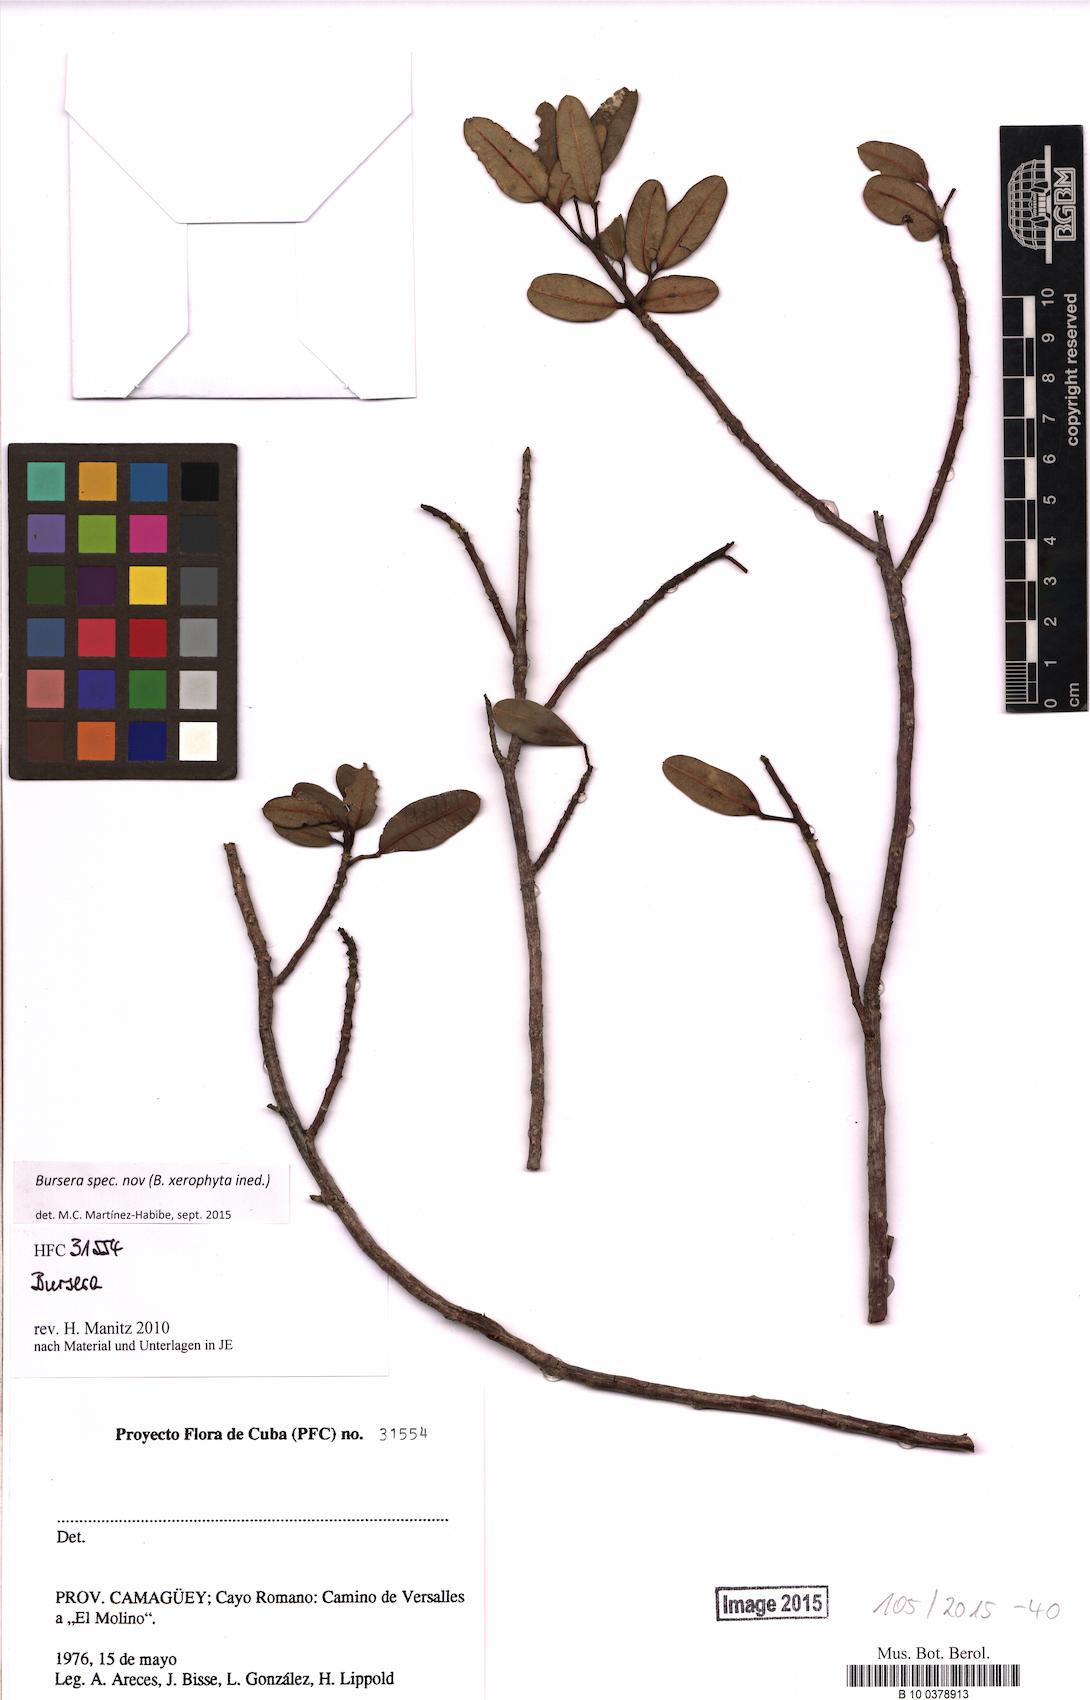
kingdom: Plantae
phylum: Tracheophyta
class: Magnoliopsida
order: Sapindales
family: Burseraceae
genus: Bursera
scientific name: Bursera
